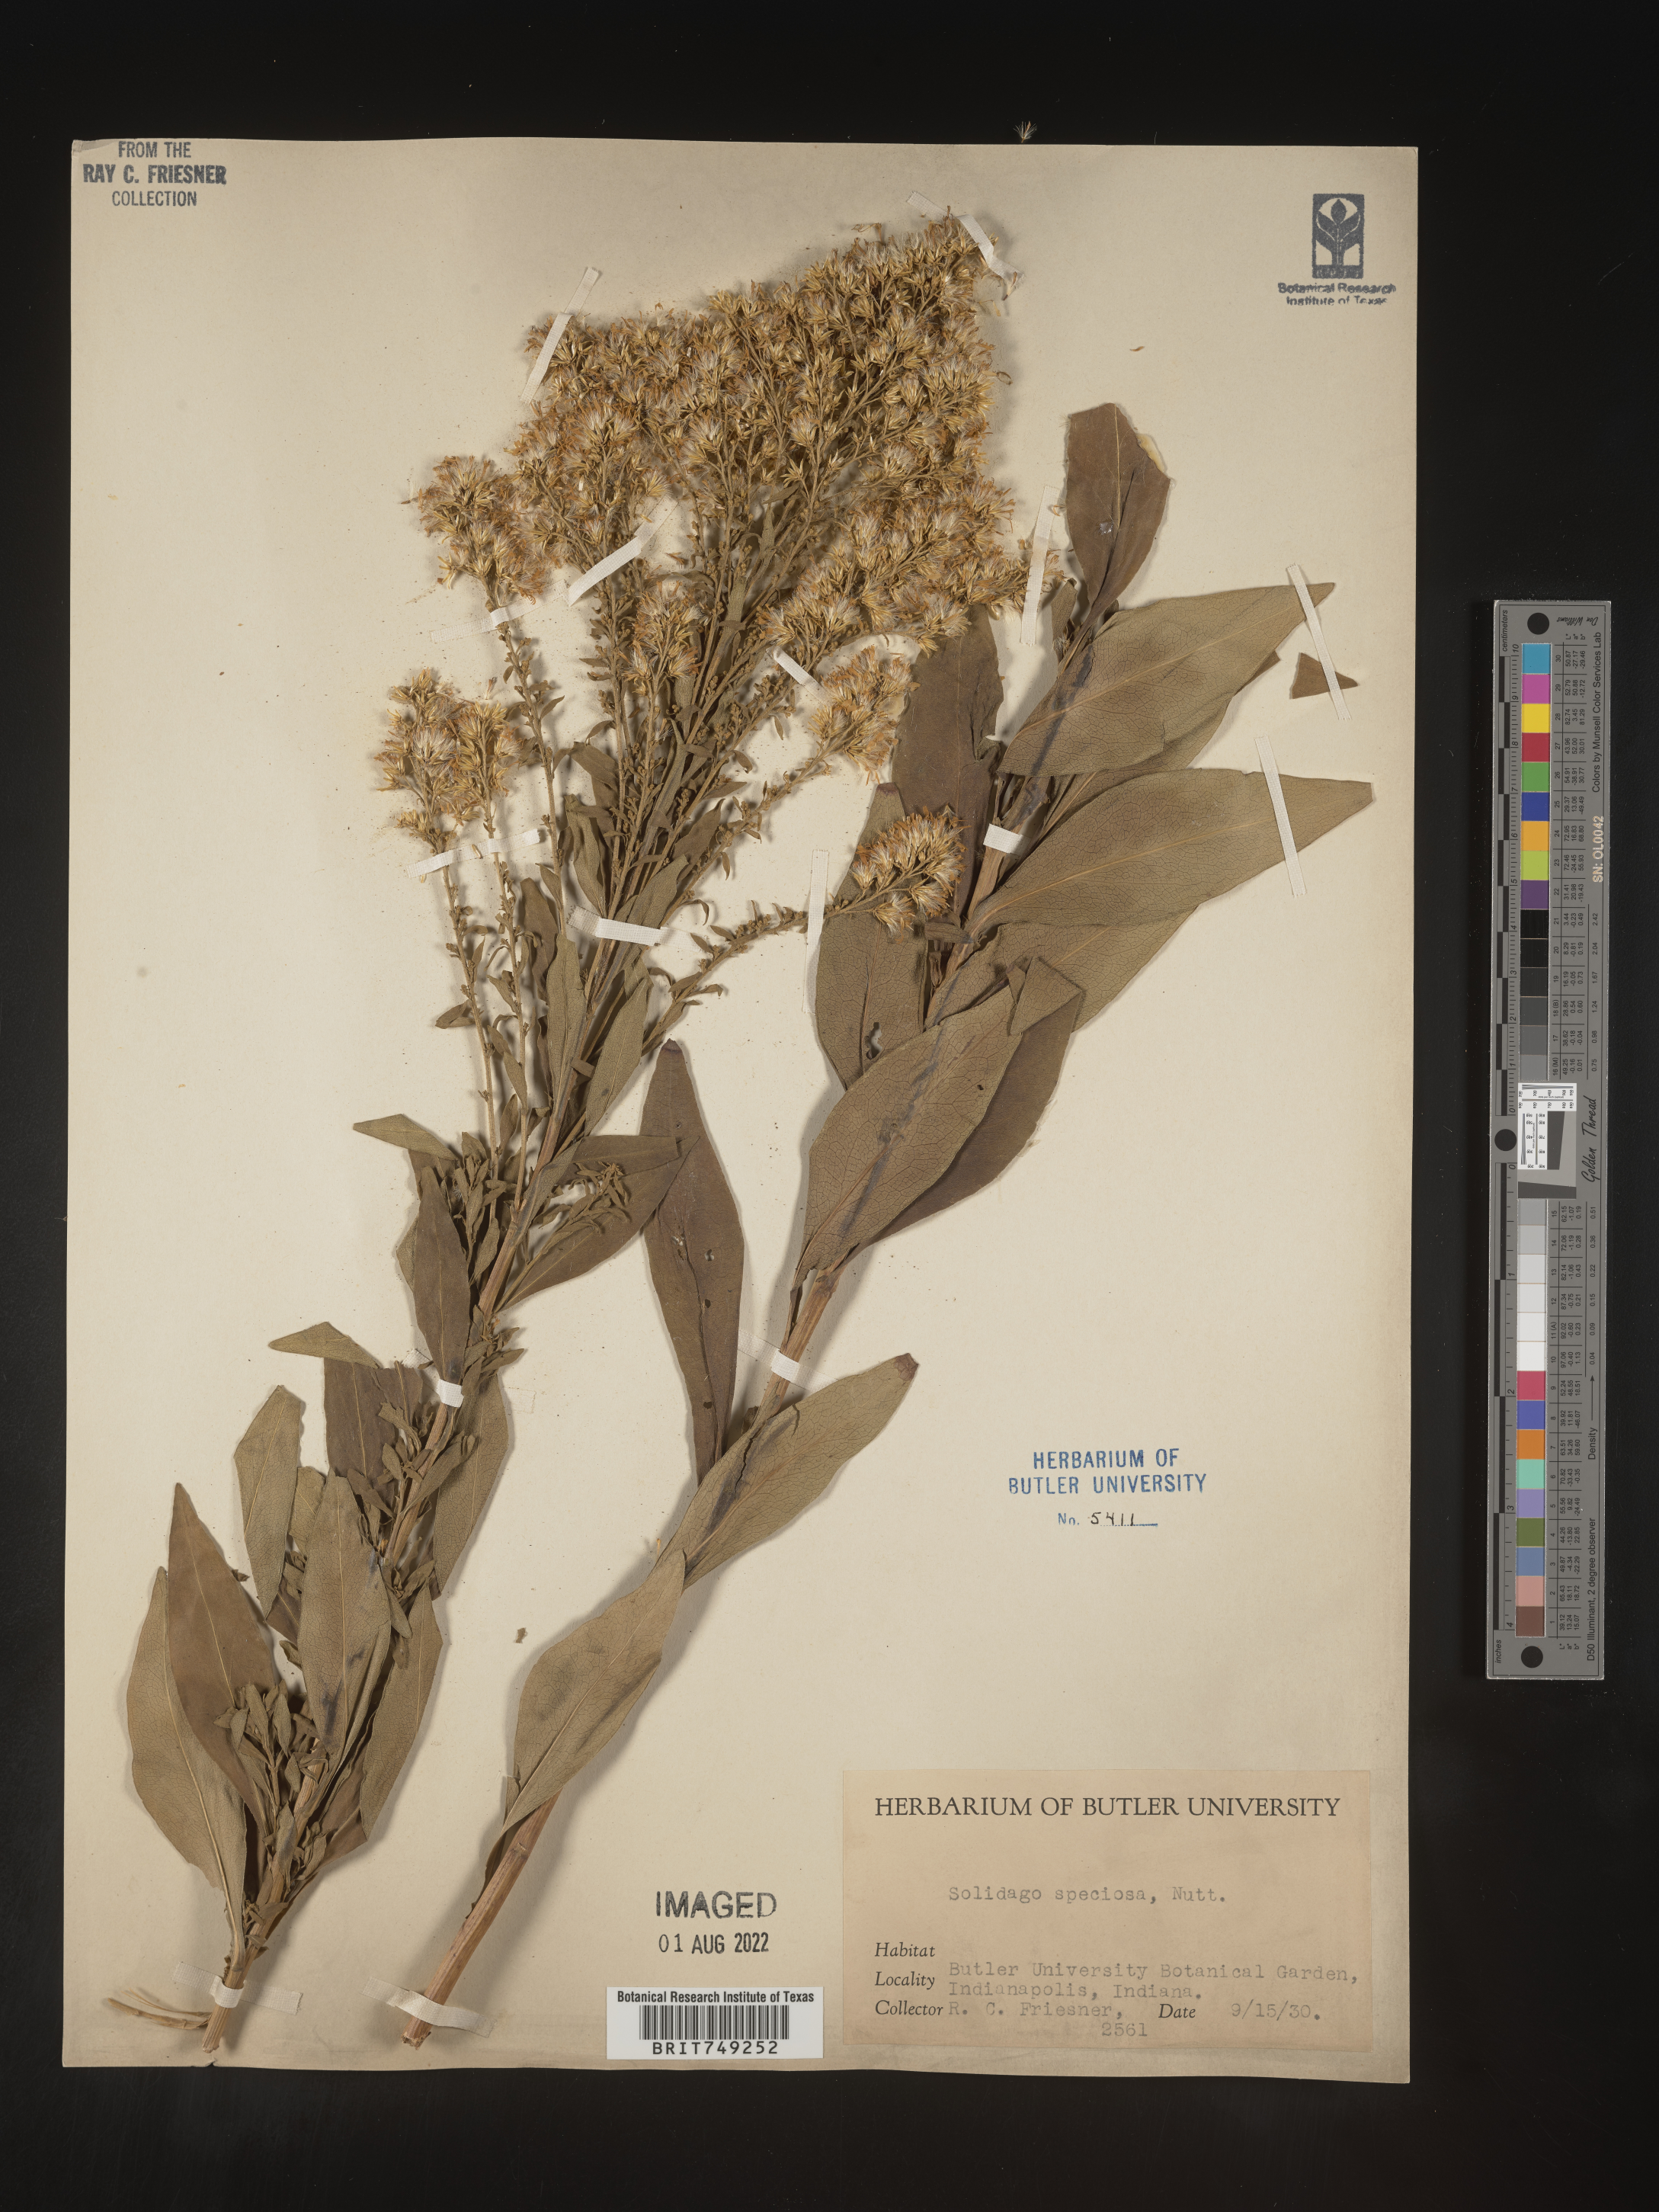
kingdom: Plantae
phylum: Tracheophyta
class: Magnoliopsida
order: Asterales
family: Asteraceae
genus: Solidago
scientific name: Solidago speciosa
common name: Showy goldenrod
